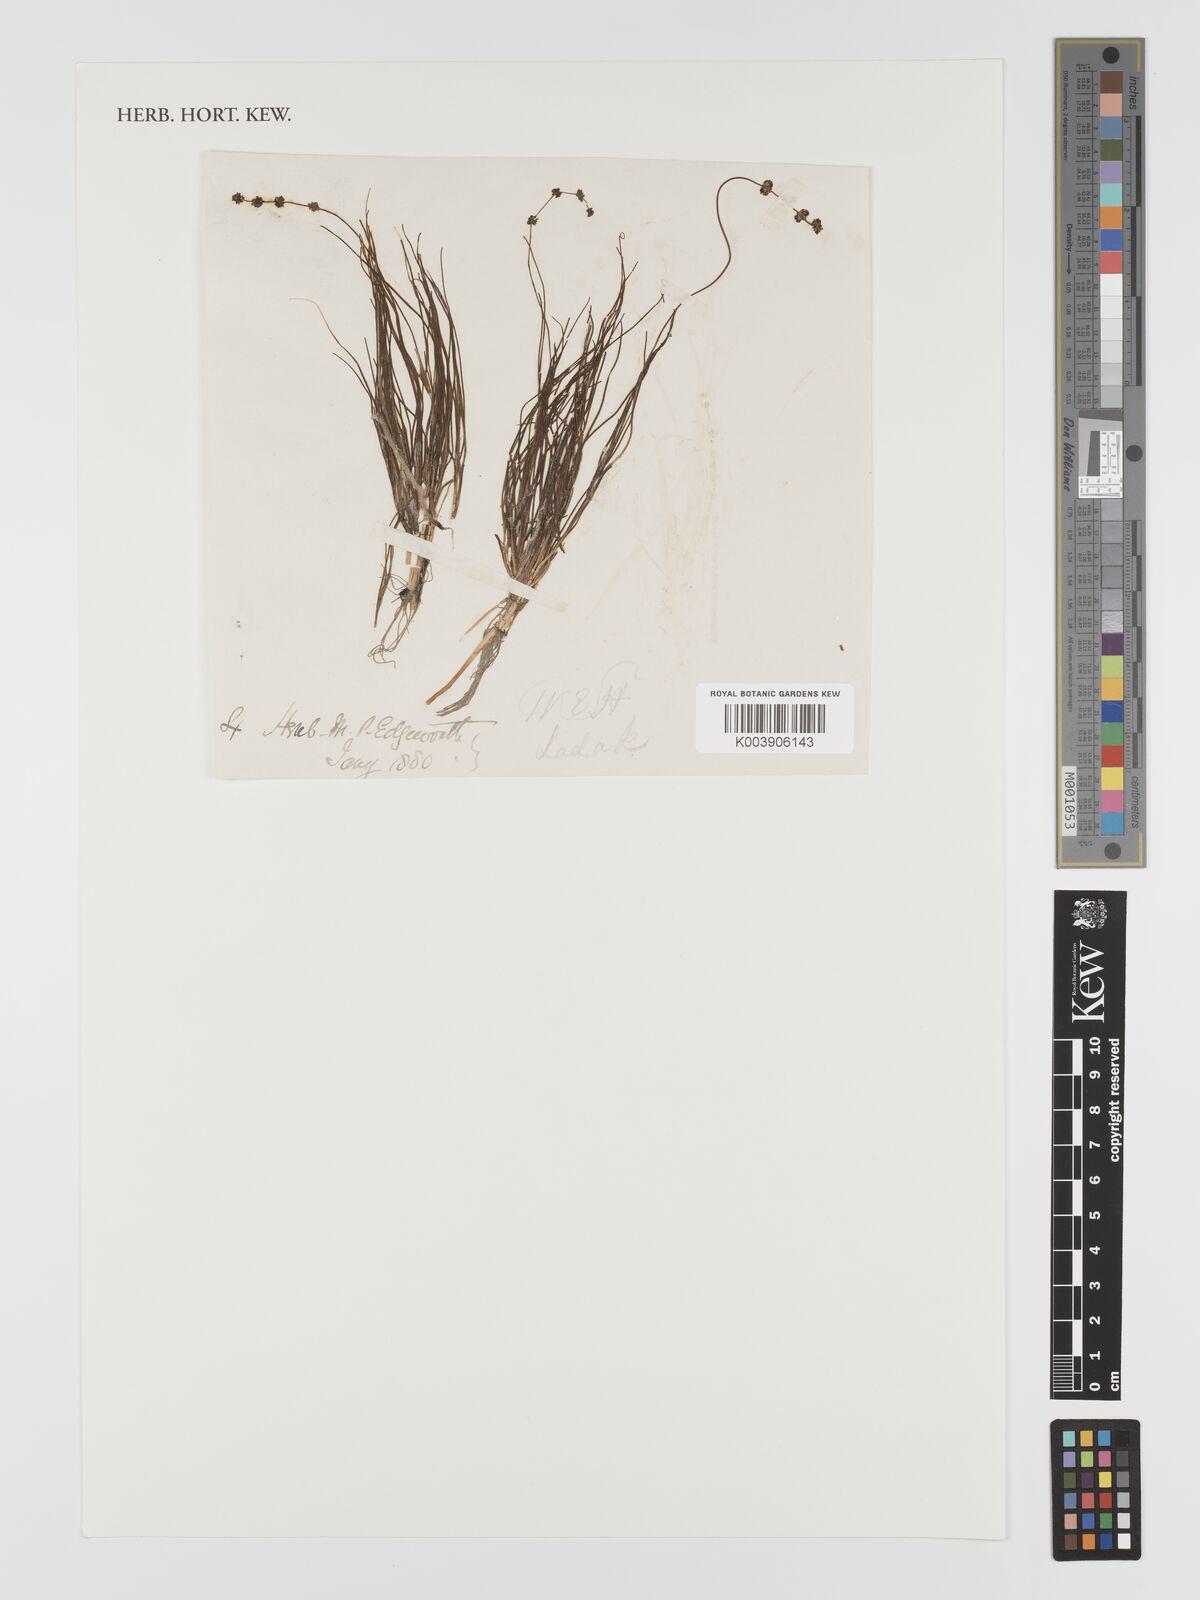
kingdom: Plantae
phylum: Tracheophyta
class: Liliopsida
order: Alismatales
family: Potamogetonaceae
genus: Stuckenia
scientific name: Stuckenia pectinata
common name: Sago pondweed
